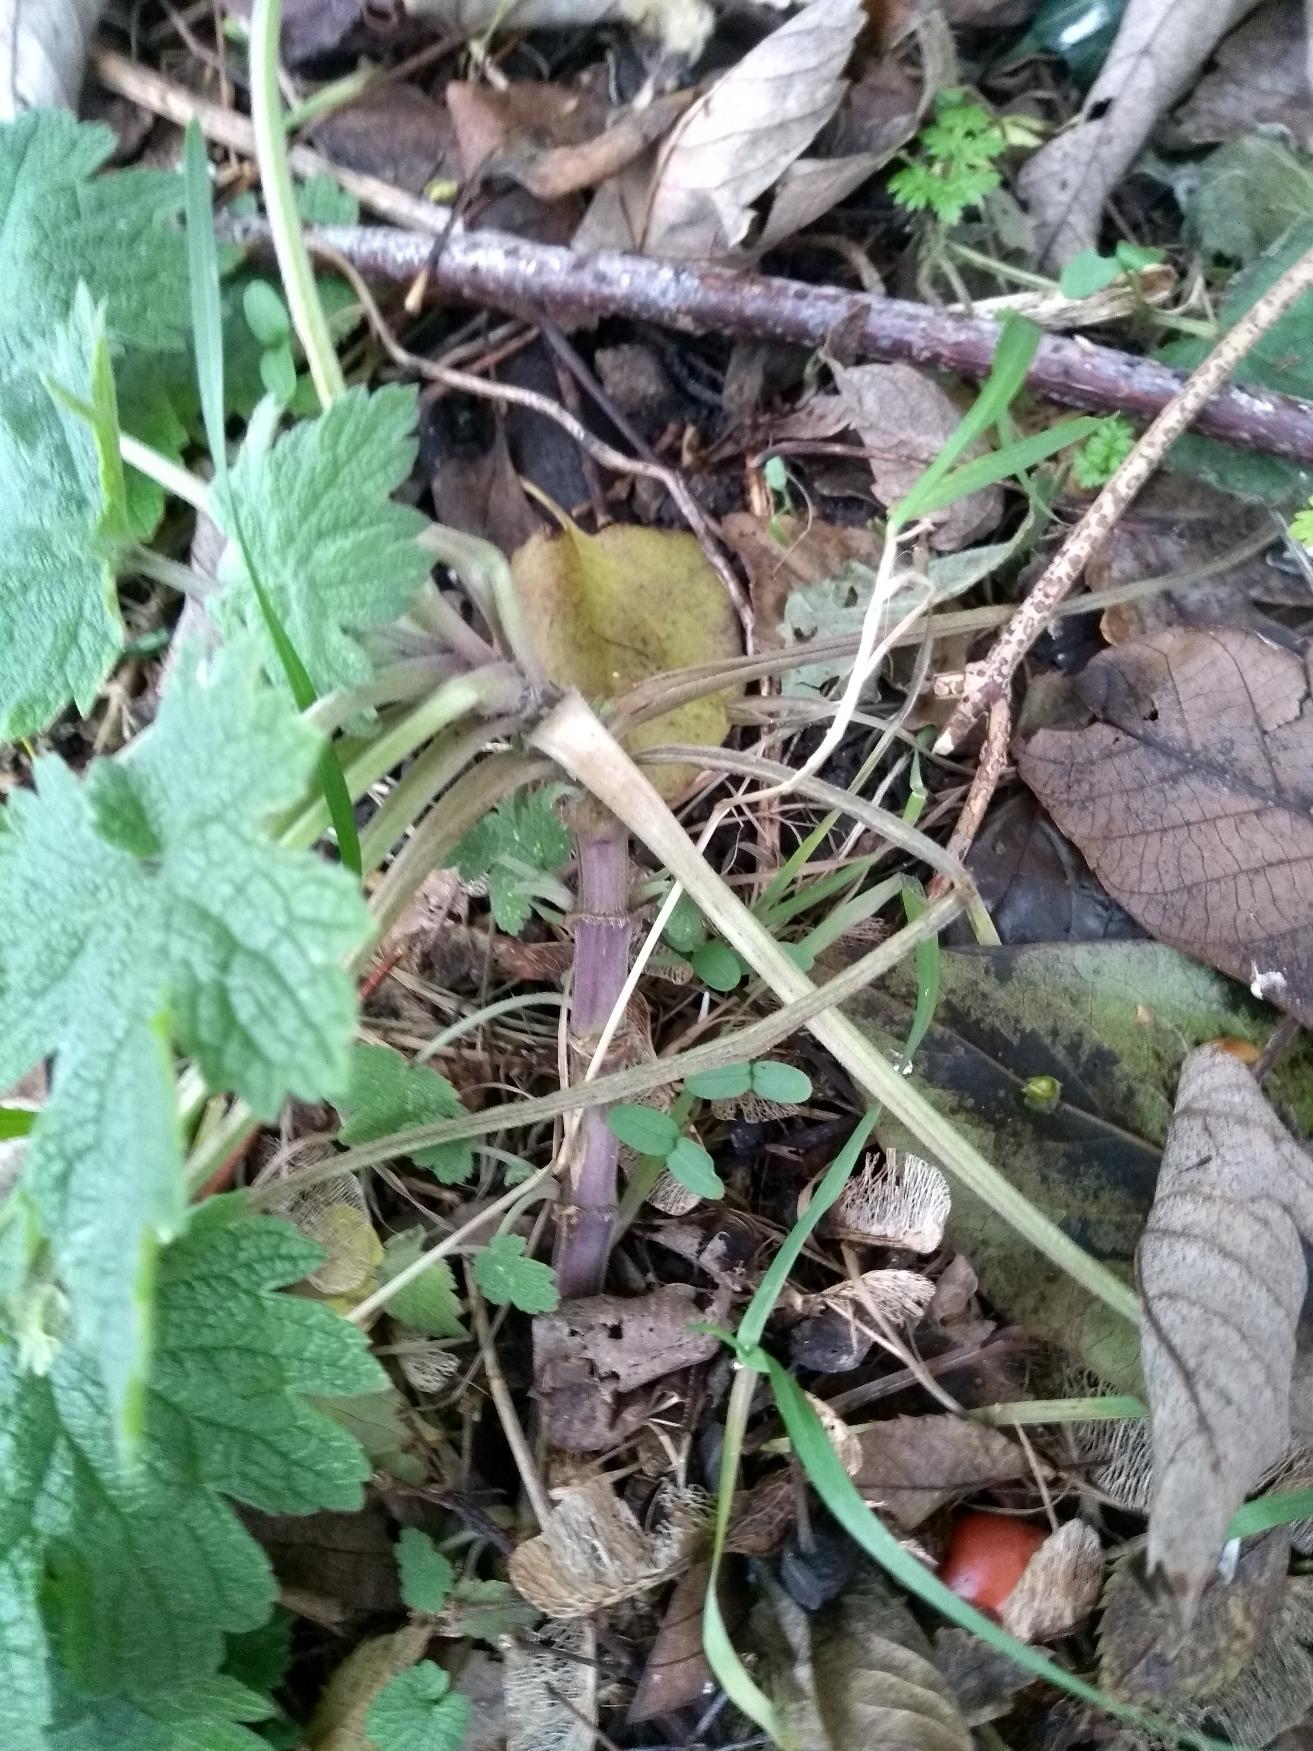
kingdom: Plantae
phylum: Tracheophyta
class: Magnoliopsida
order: Lamiales
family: Lamiaceae
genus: Leonurus
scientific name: Leonurus cardiaca
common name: Hjertespand
